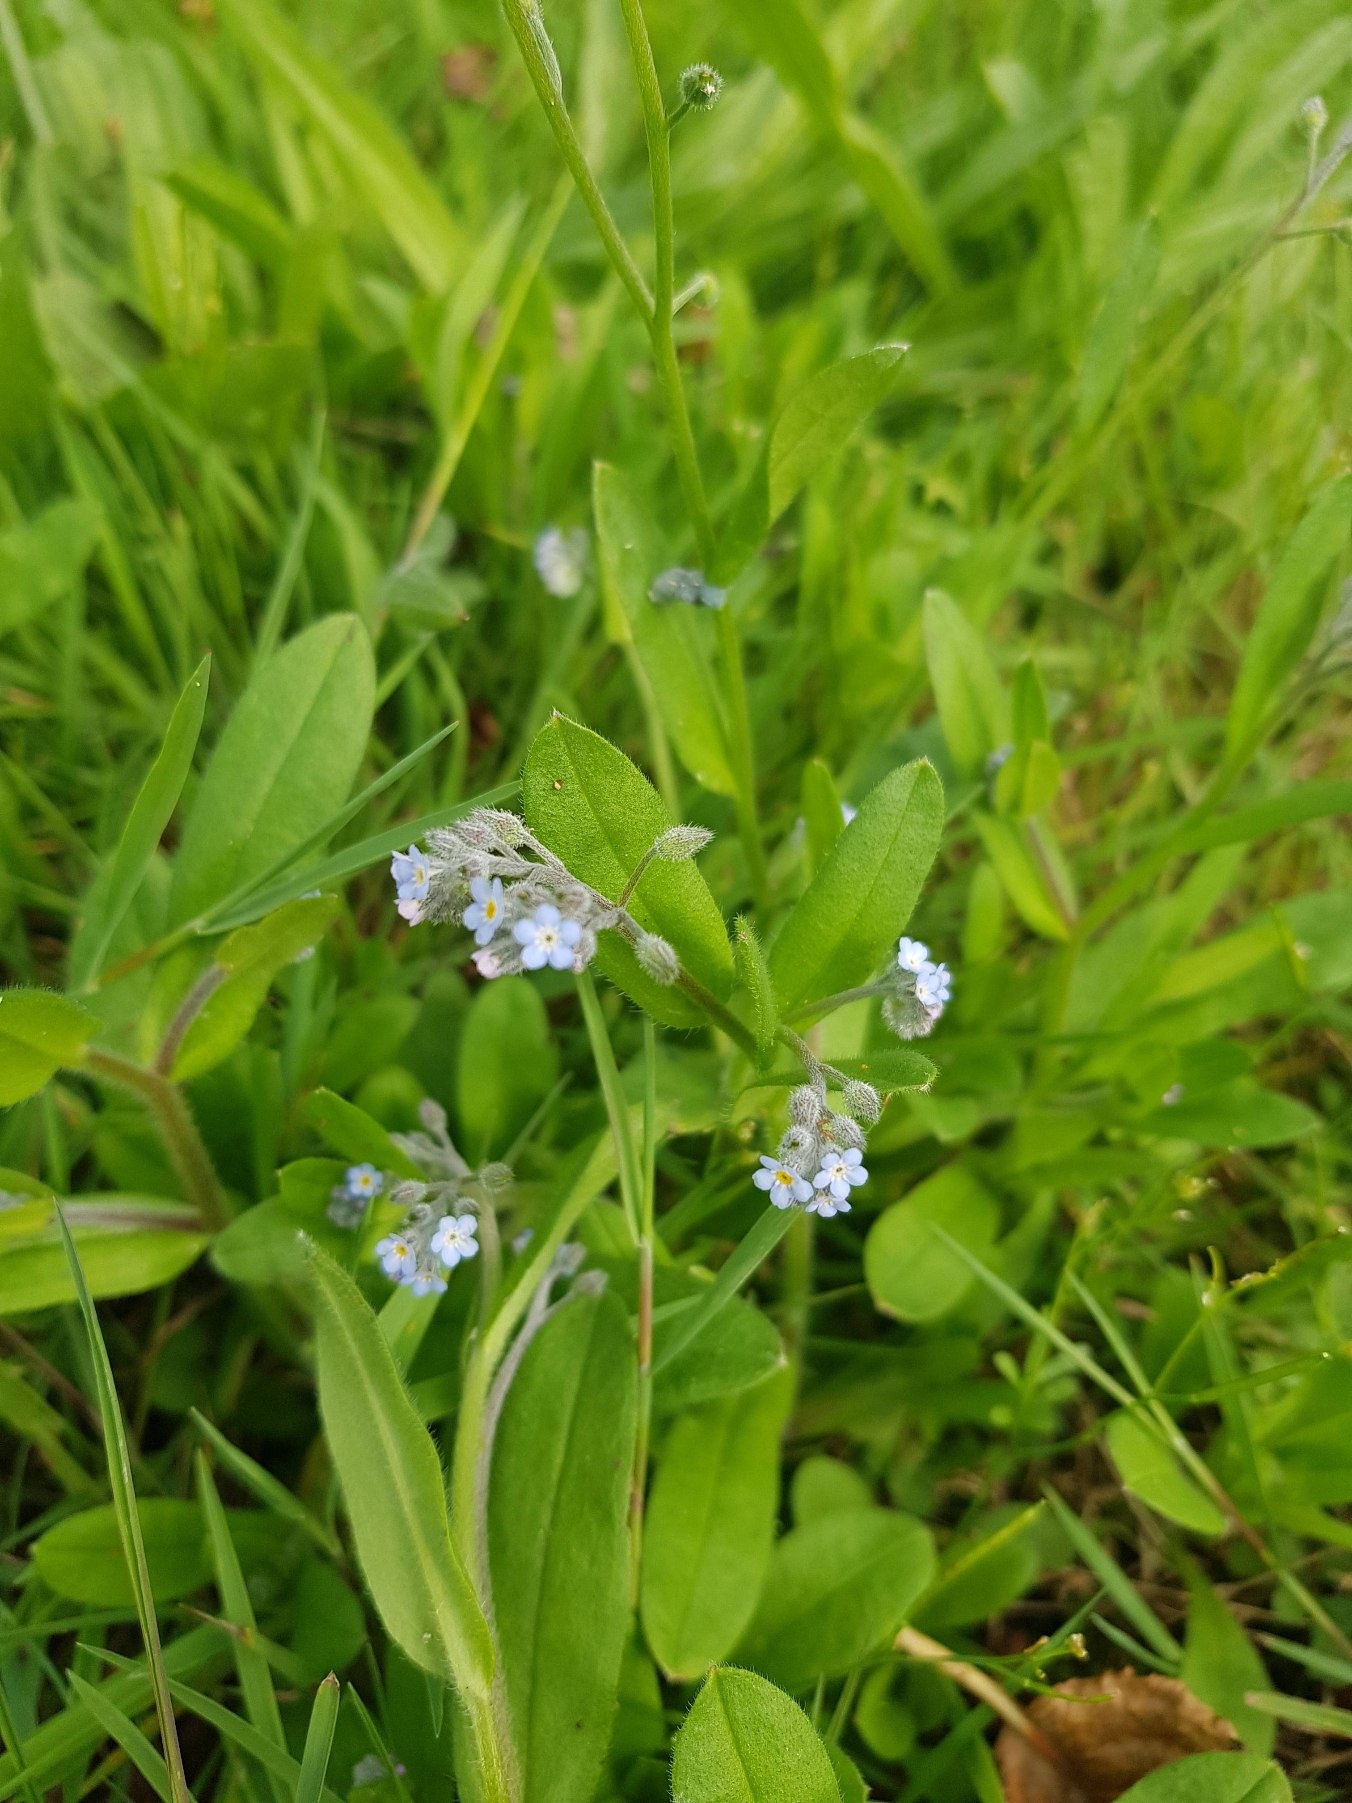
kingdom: Plantae
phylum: Tracheophyta
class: Magnoliopsida
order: Boraginales
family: Boraginaceae
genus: Myosotis
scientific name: Myosotis arvensis
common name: Mark-forglemmigej
